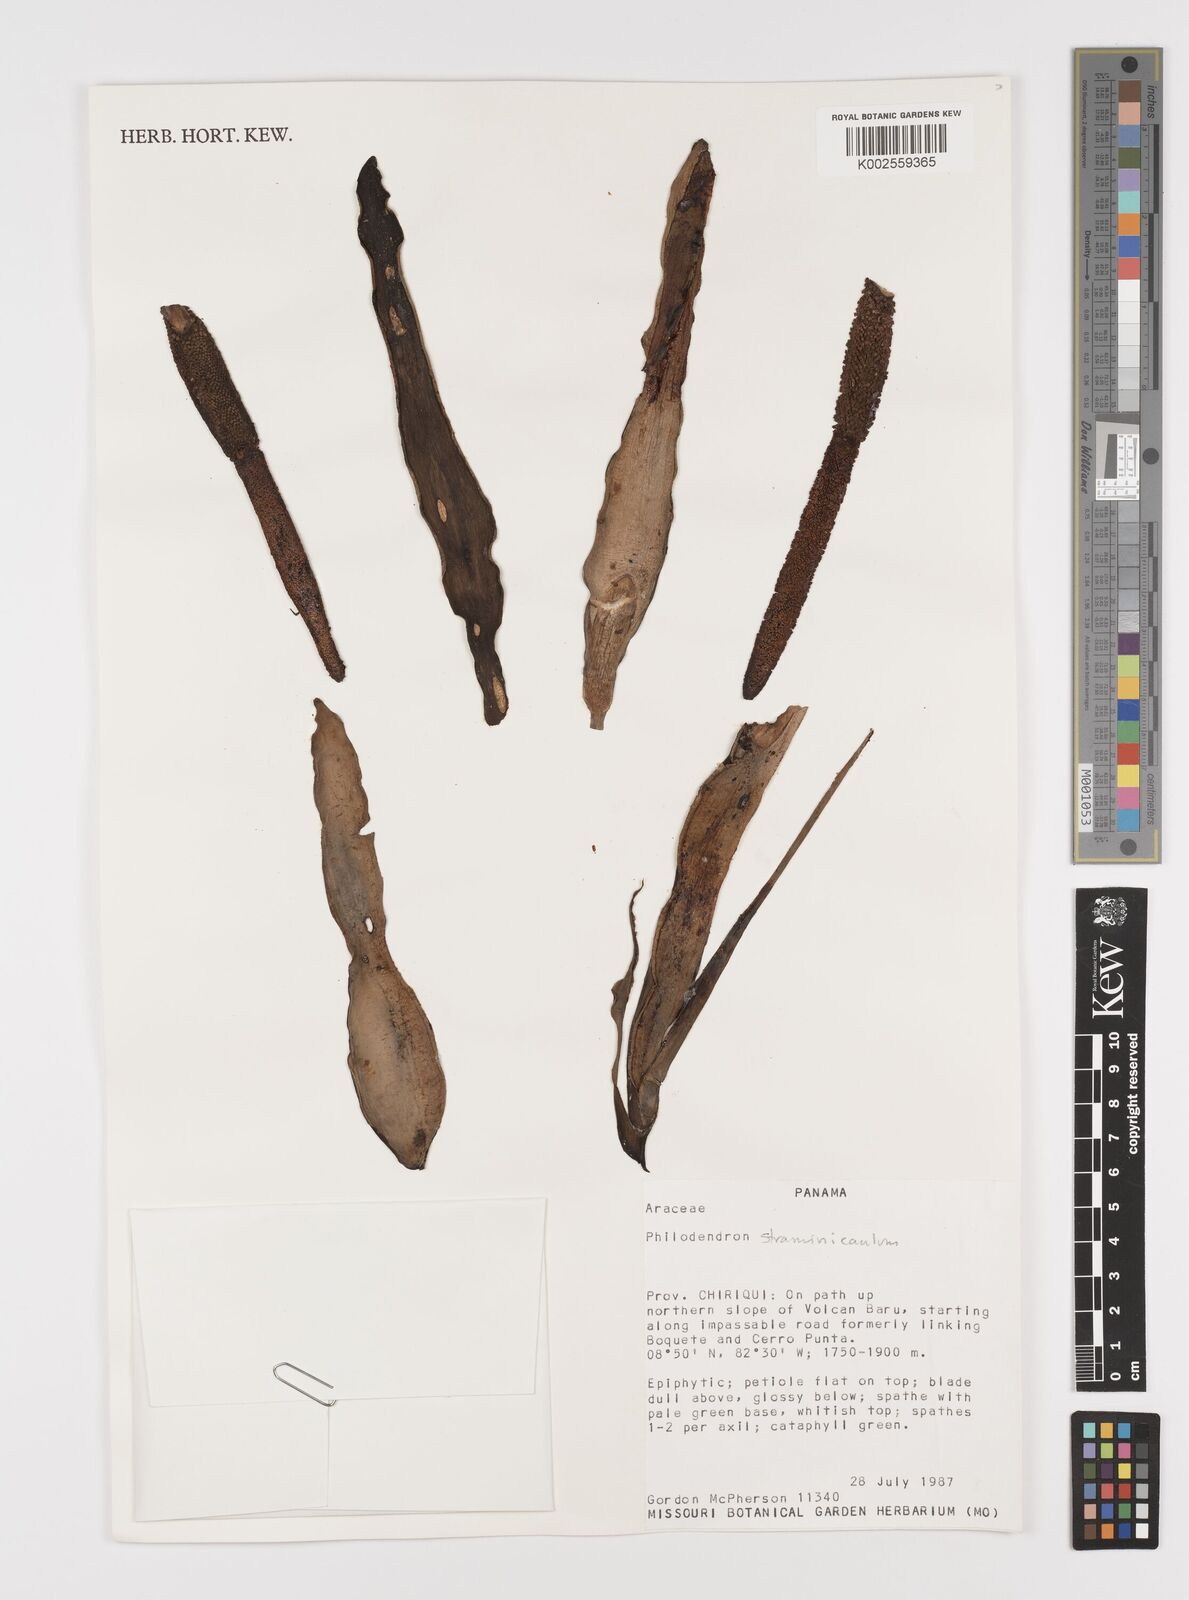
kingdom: Plantae
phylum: Tracheophyta
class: Liliopsida
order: Alismatales
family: Araceae
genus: Philodendron
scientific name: Philodendron straminicaule
